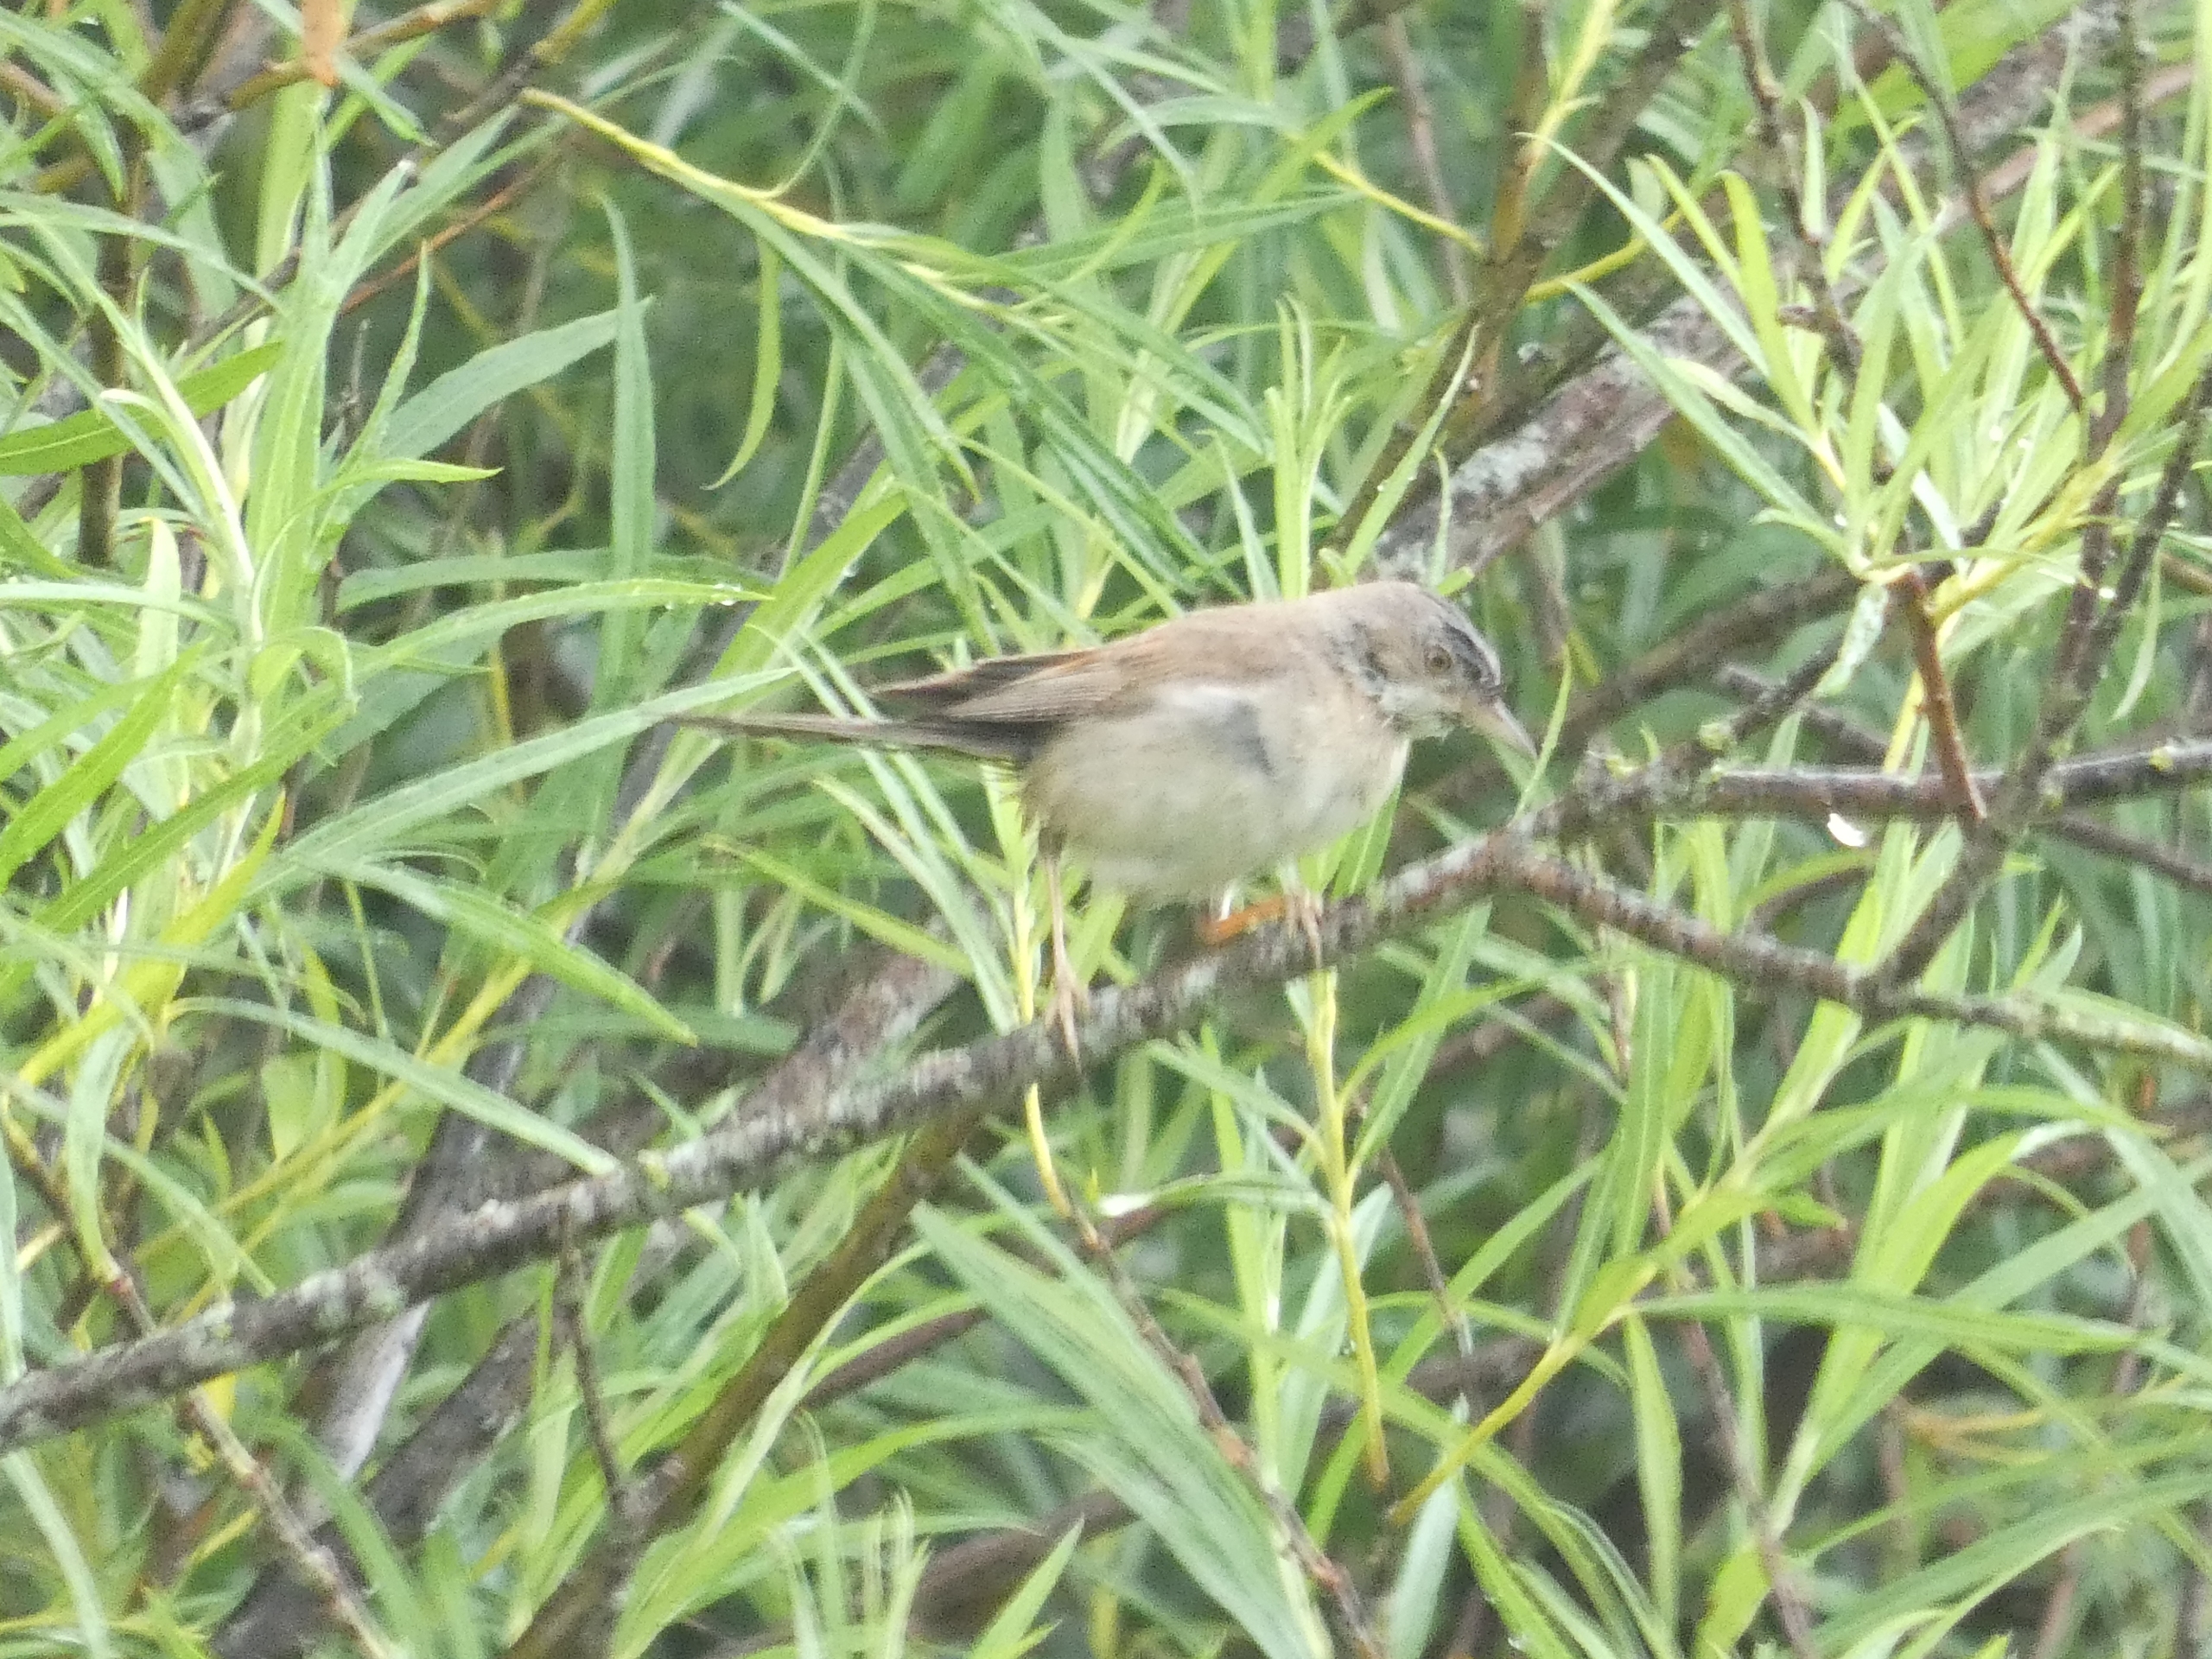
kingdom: Animalia
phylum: Chordata
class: Aves
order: Passeriformes
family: Sylviidae
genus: Sylvia
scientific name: Sylvia communis
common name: Tornsanger
